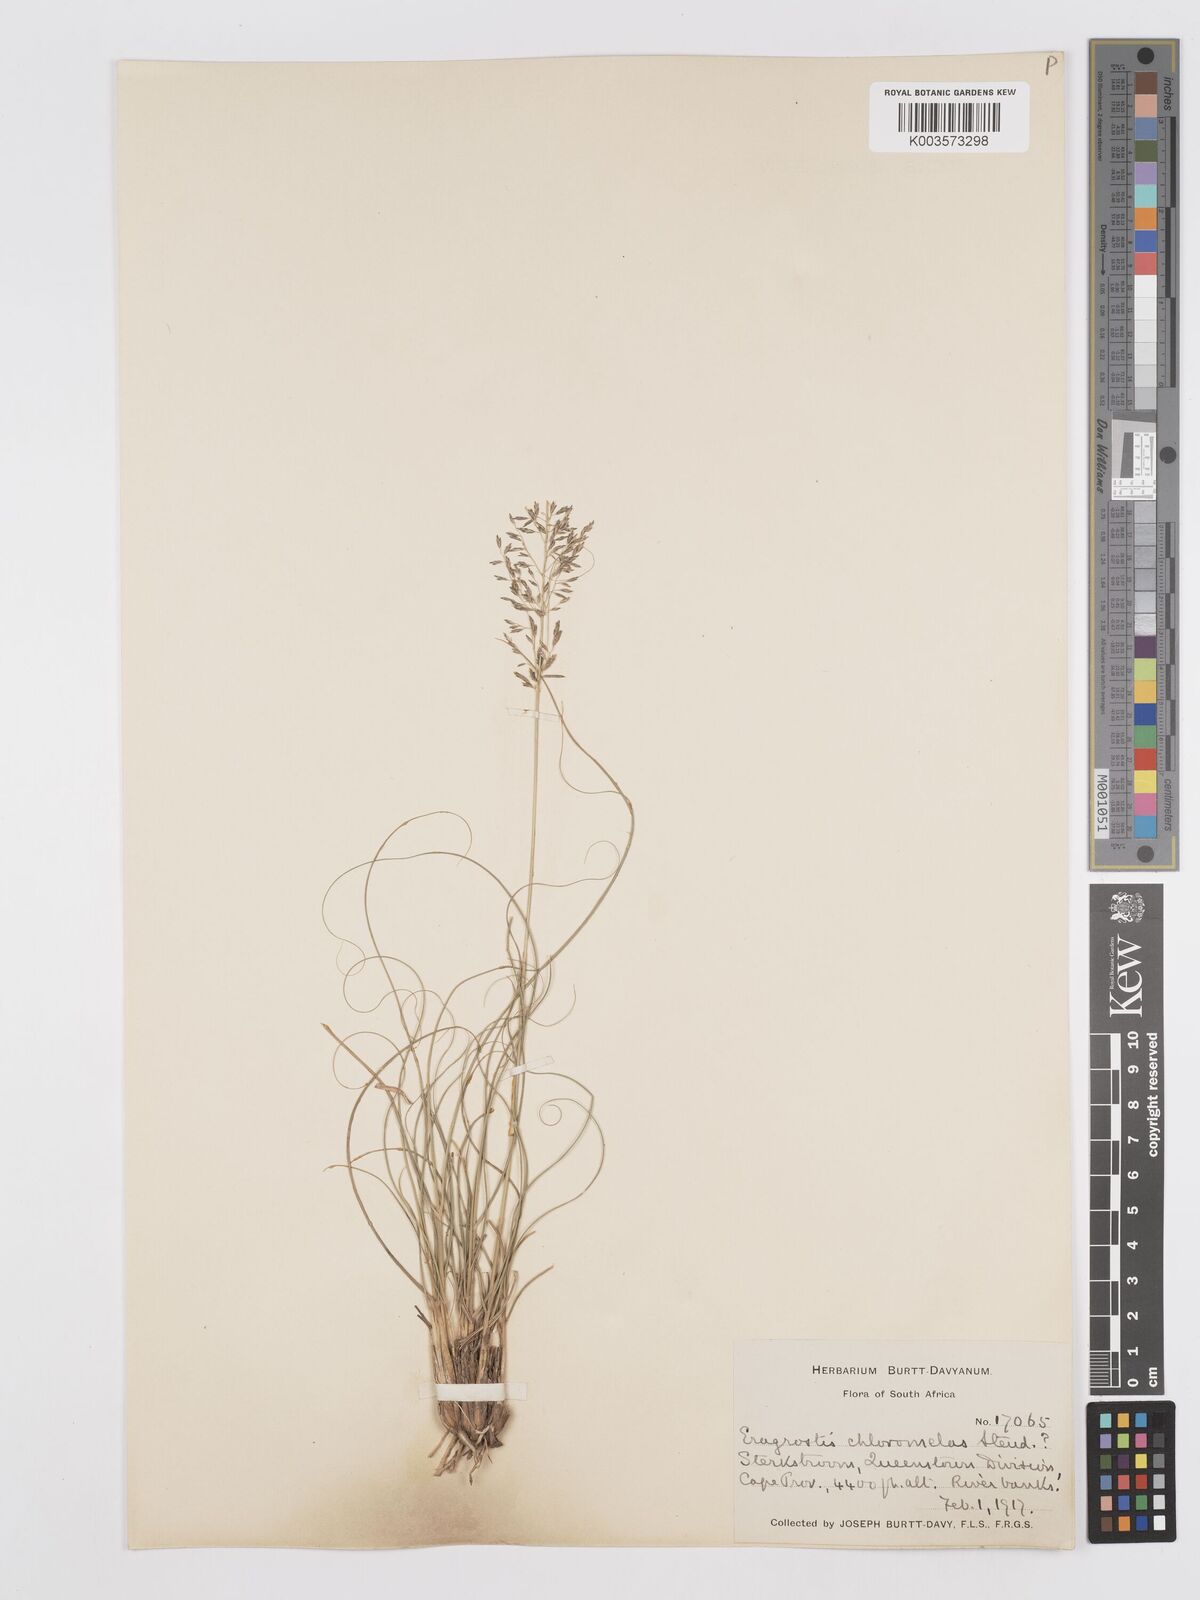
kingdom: Plantae
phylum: Tracheophyta
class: Liliopsida
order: Poales
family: Poaceae
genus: Eragrostis
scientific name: Eragrostis curvula
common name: African love-grass
